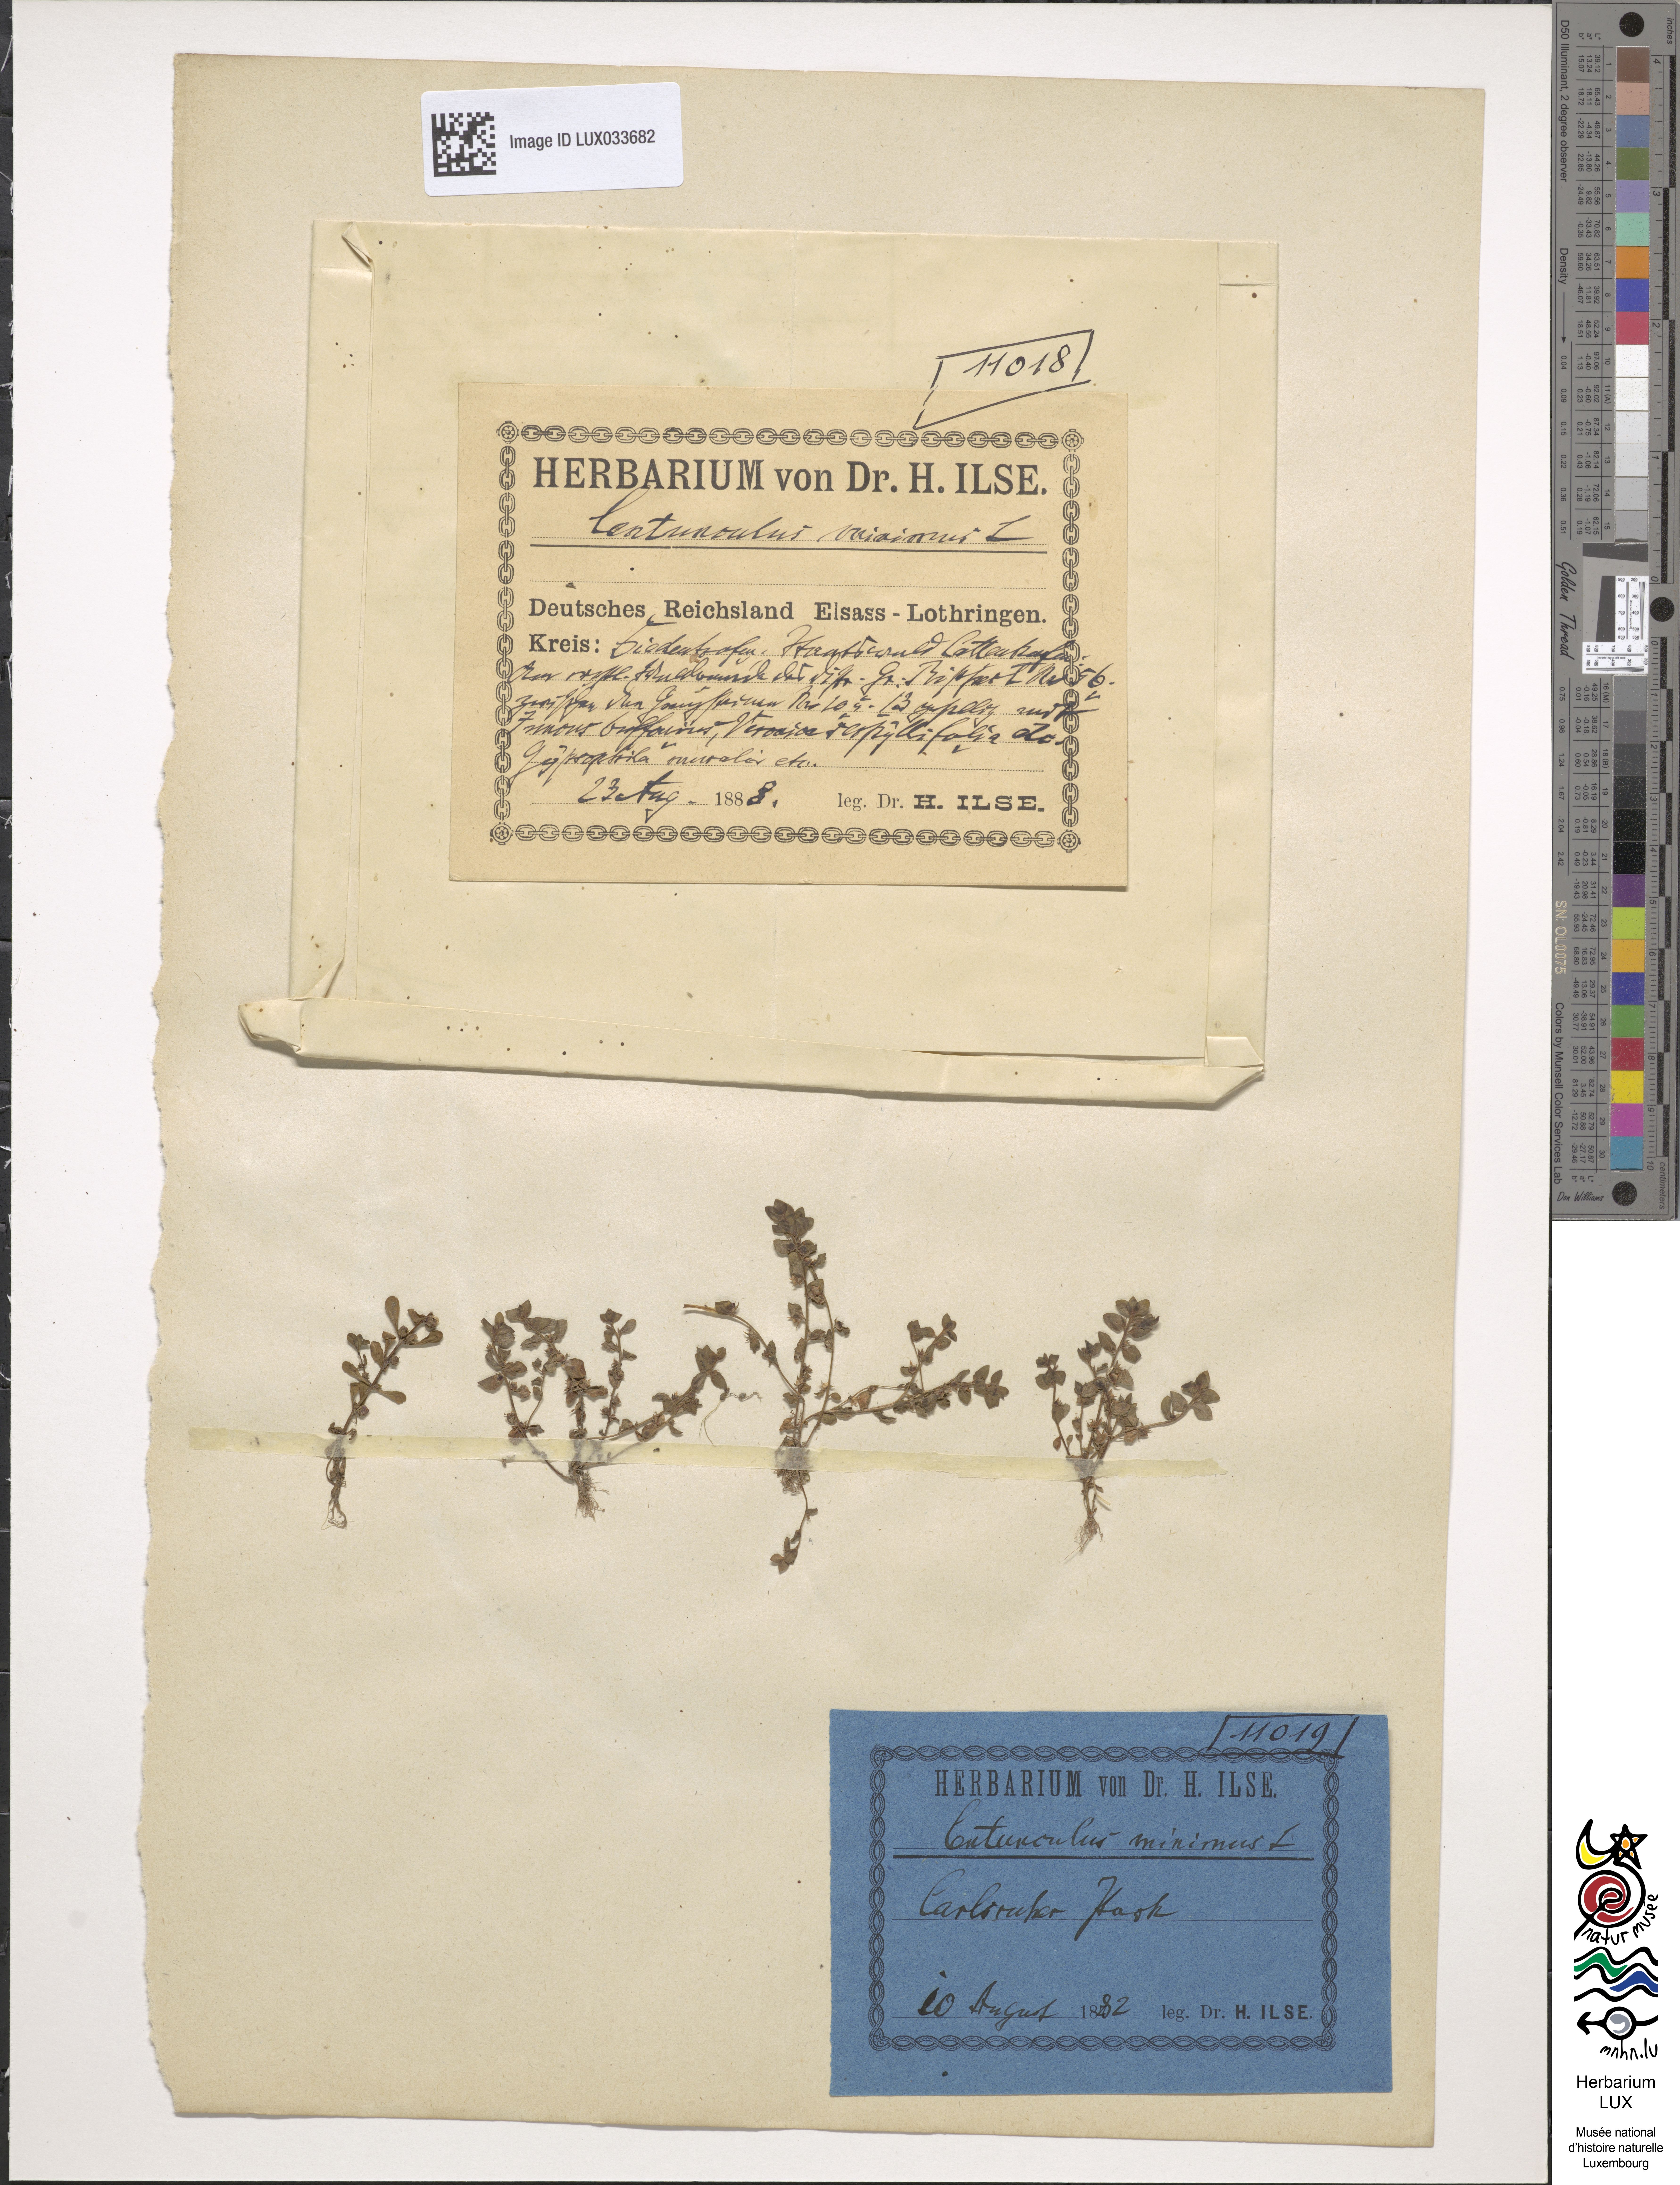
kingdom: Plantae
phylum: Tracheophyta
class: Magnoliopsida
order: Ericales
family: Primulaceae
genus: Lysimachia
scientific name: Lysimachia minima
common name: Chaffweed
